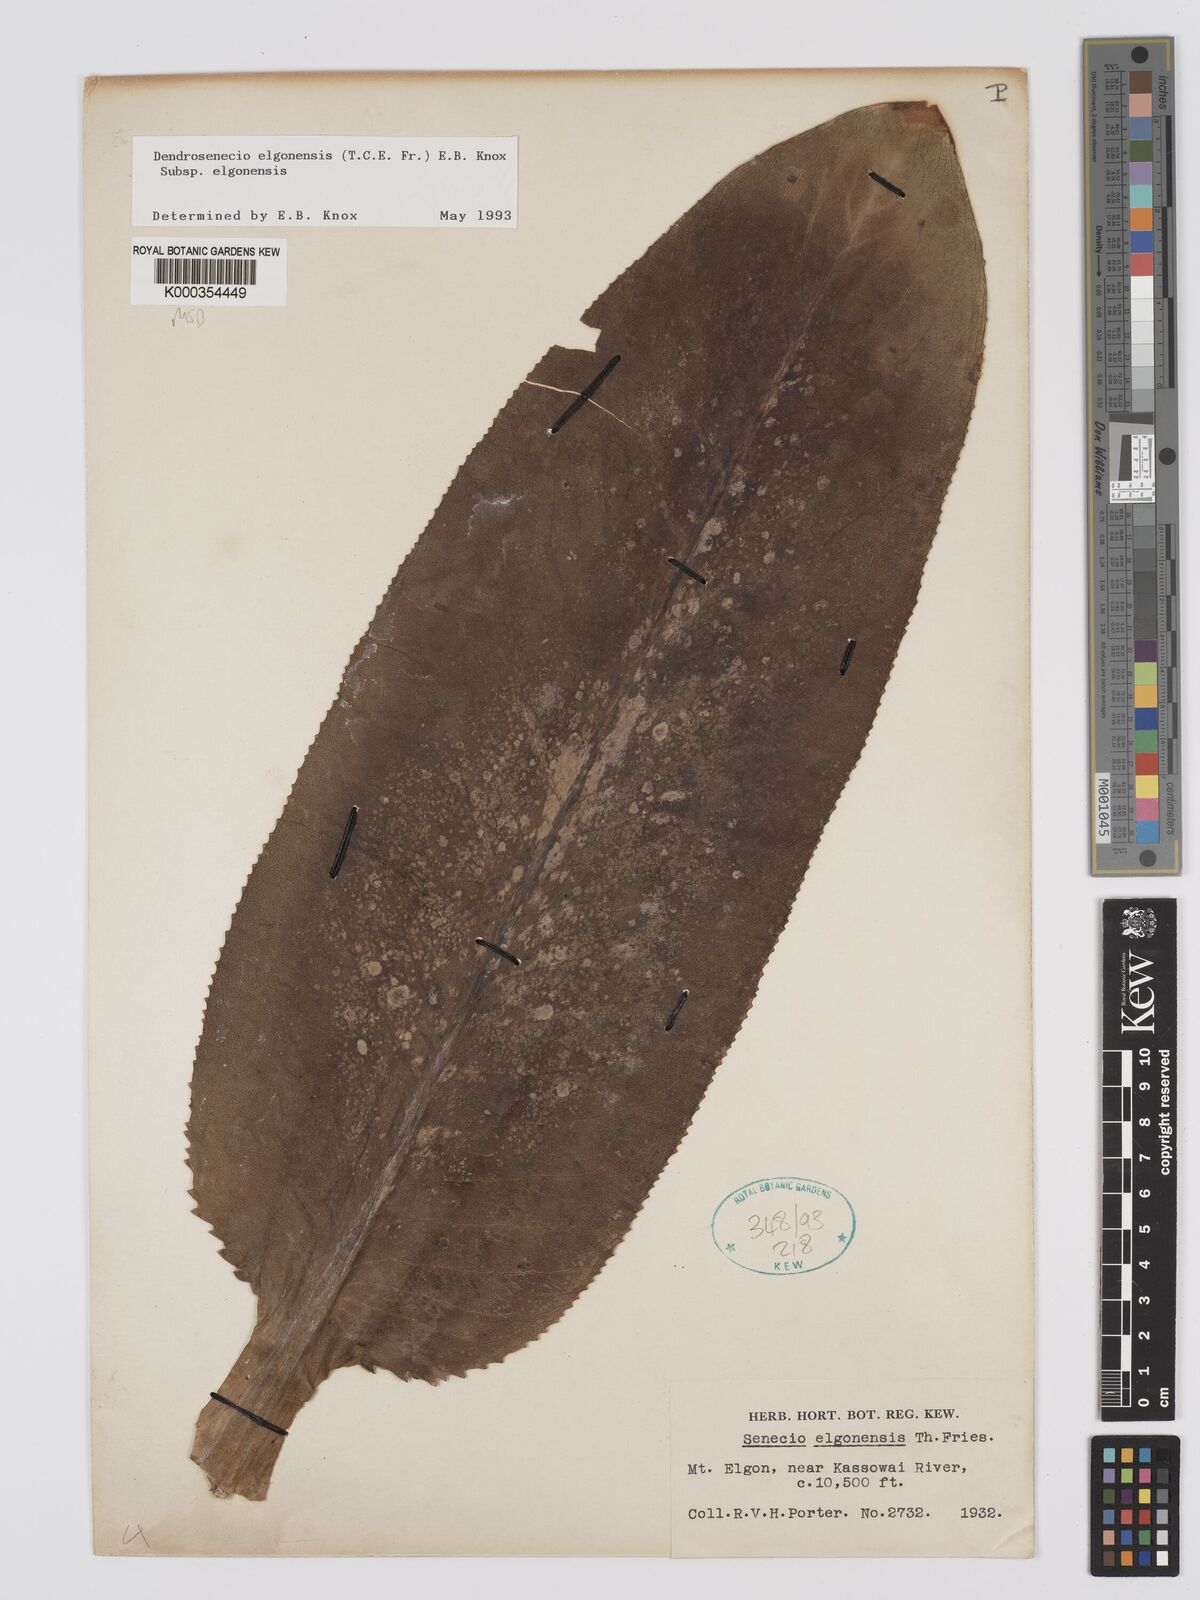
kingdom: Plantae
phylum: Tracheophyta
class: Magnoliopsida
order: Asterales
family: Asteraceae
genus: Dendrosenecio
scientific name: Dendrosenecio elgonensis
